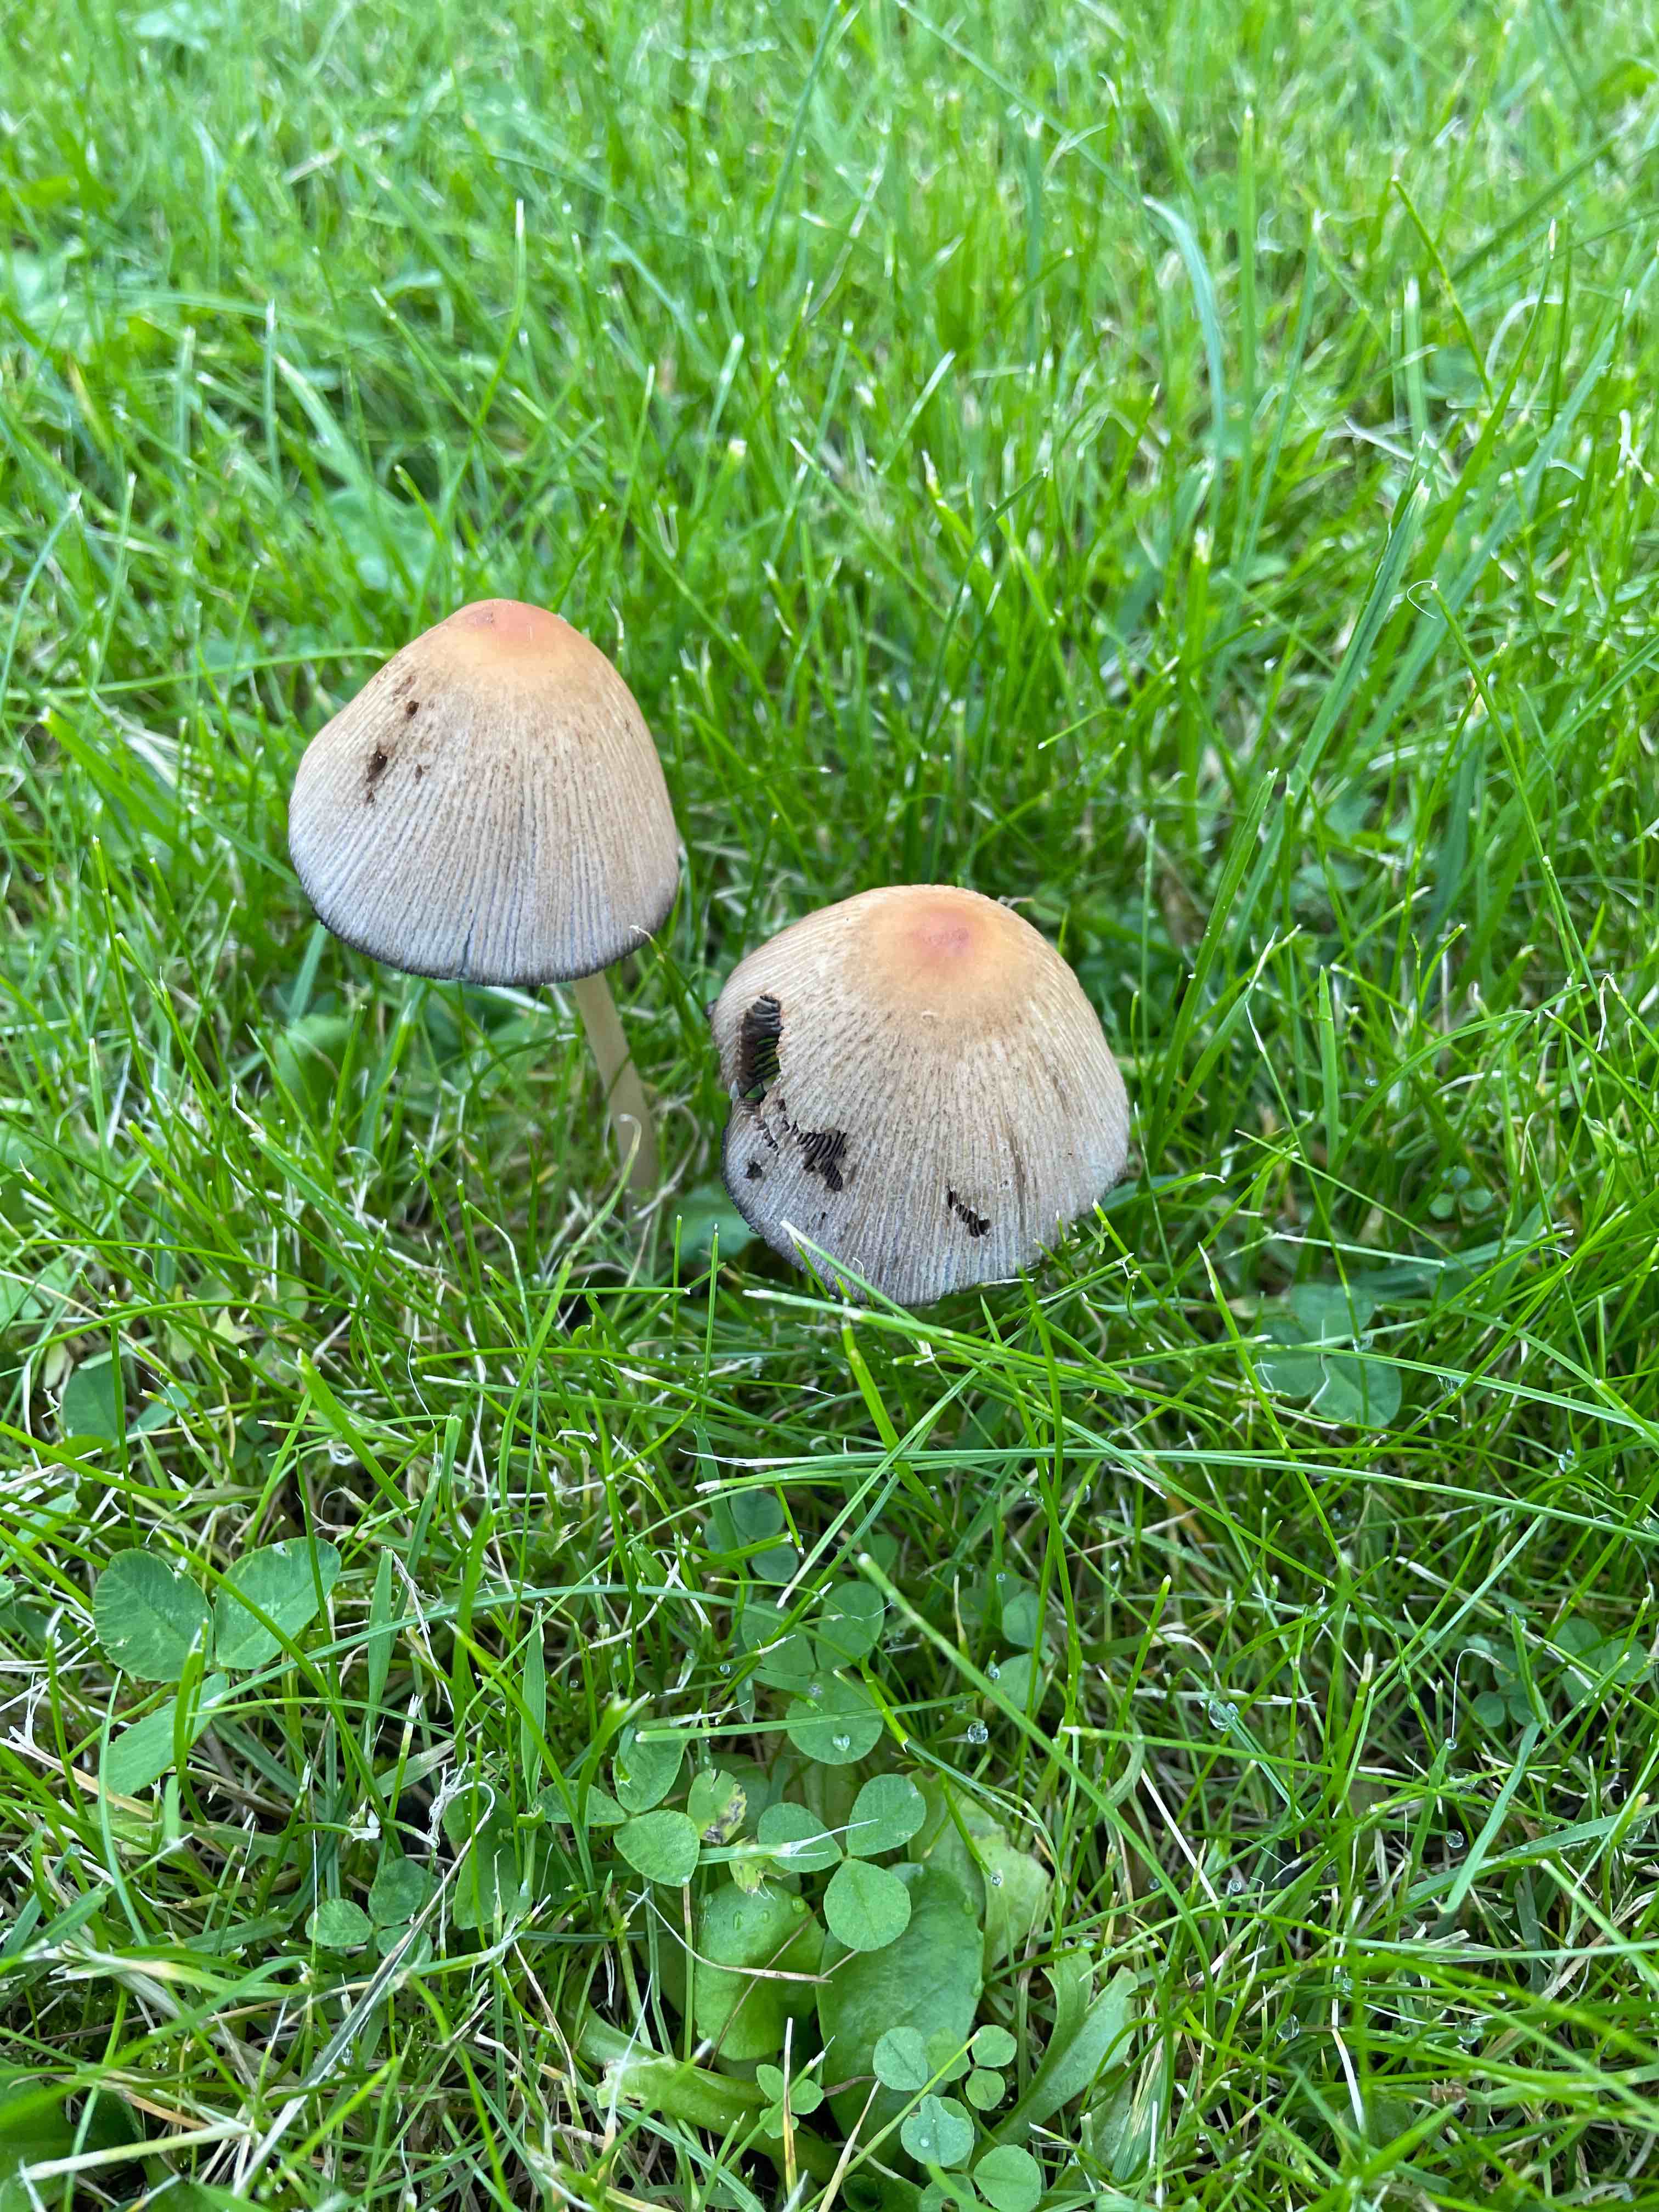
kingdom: Fungi
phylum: Basidiomycota
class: Agaricomycetes
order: Agaricales
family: Psathyrellaceae
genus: Coprinellus
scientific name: Coprinellus
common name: blækhat
